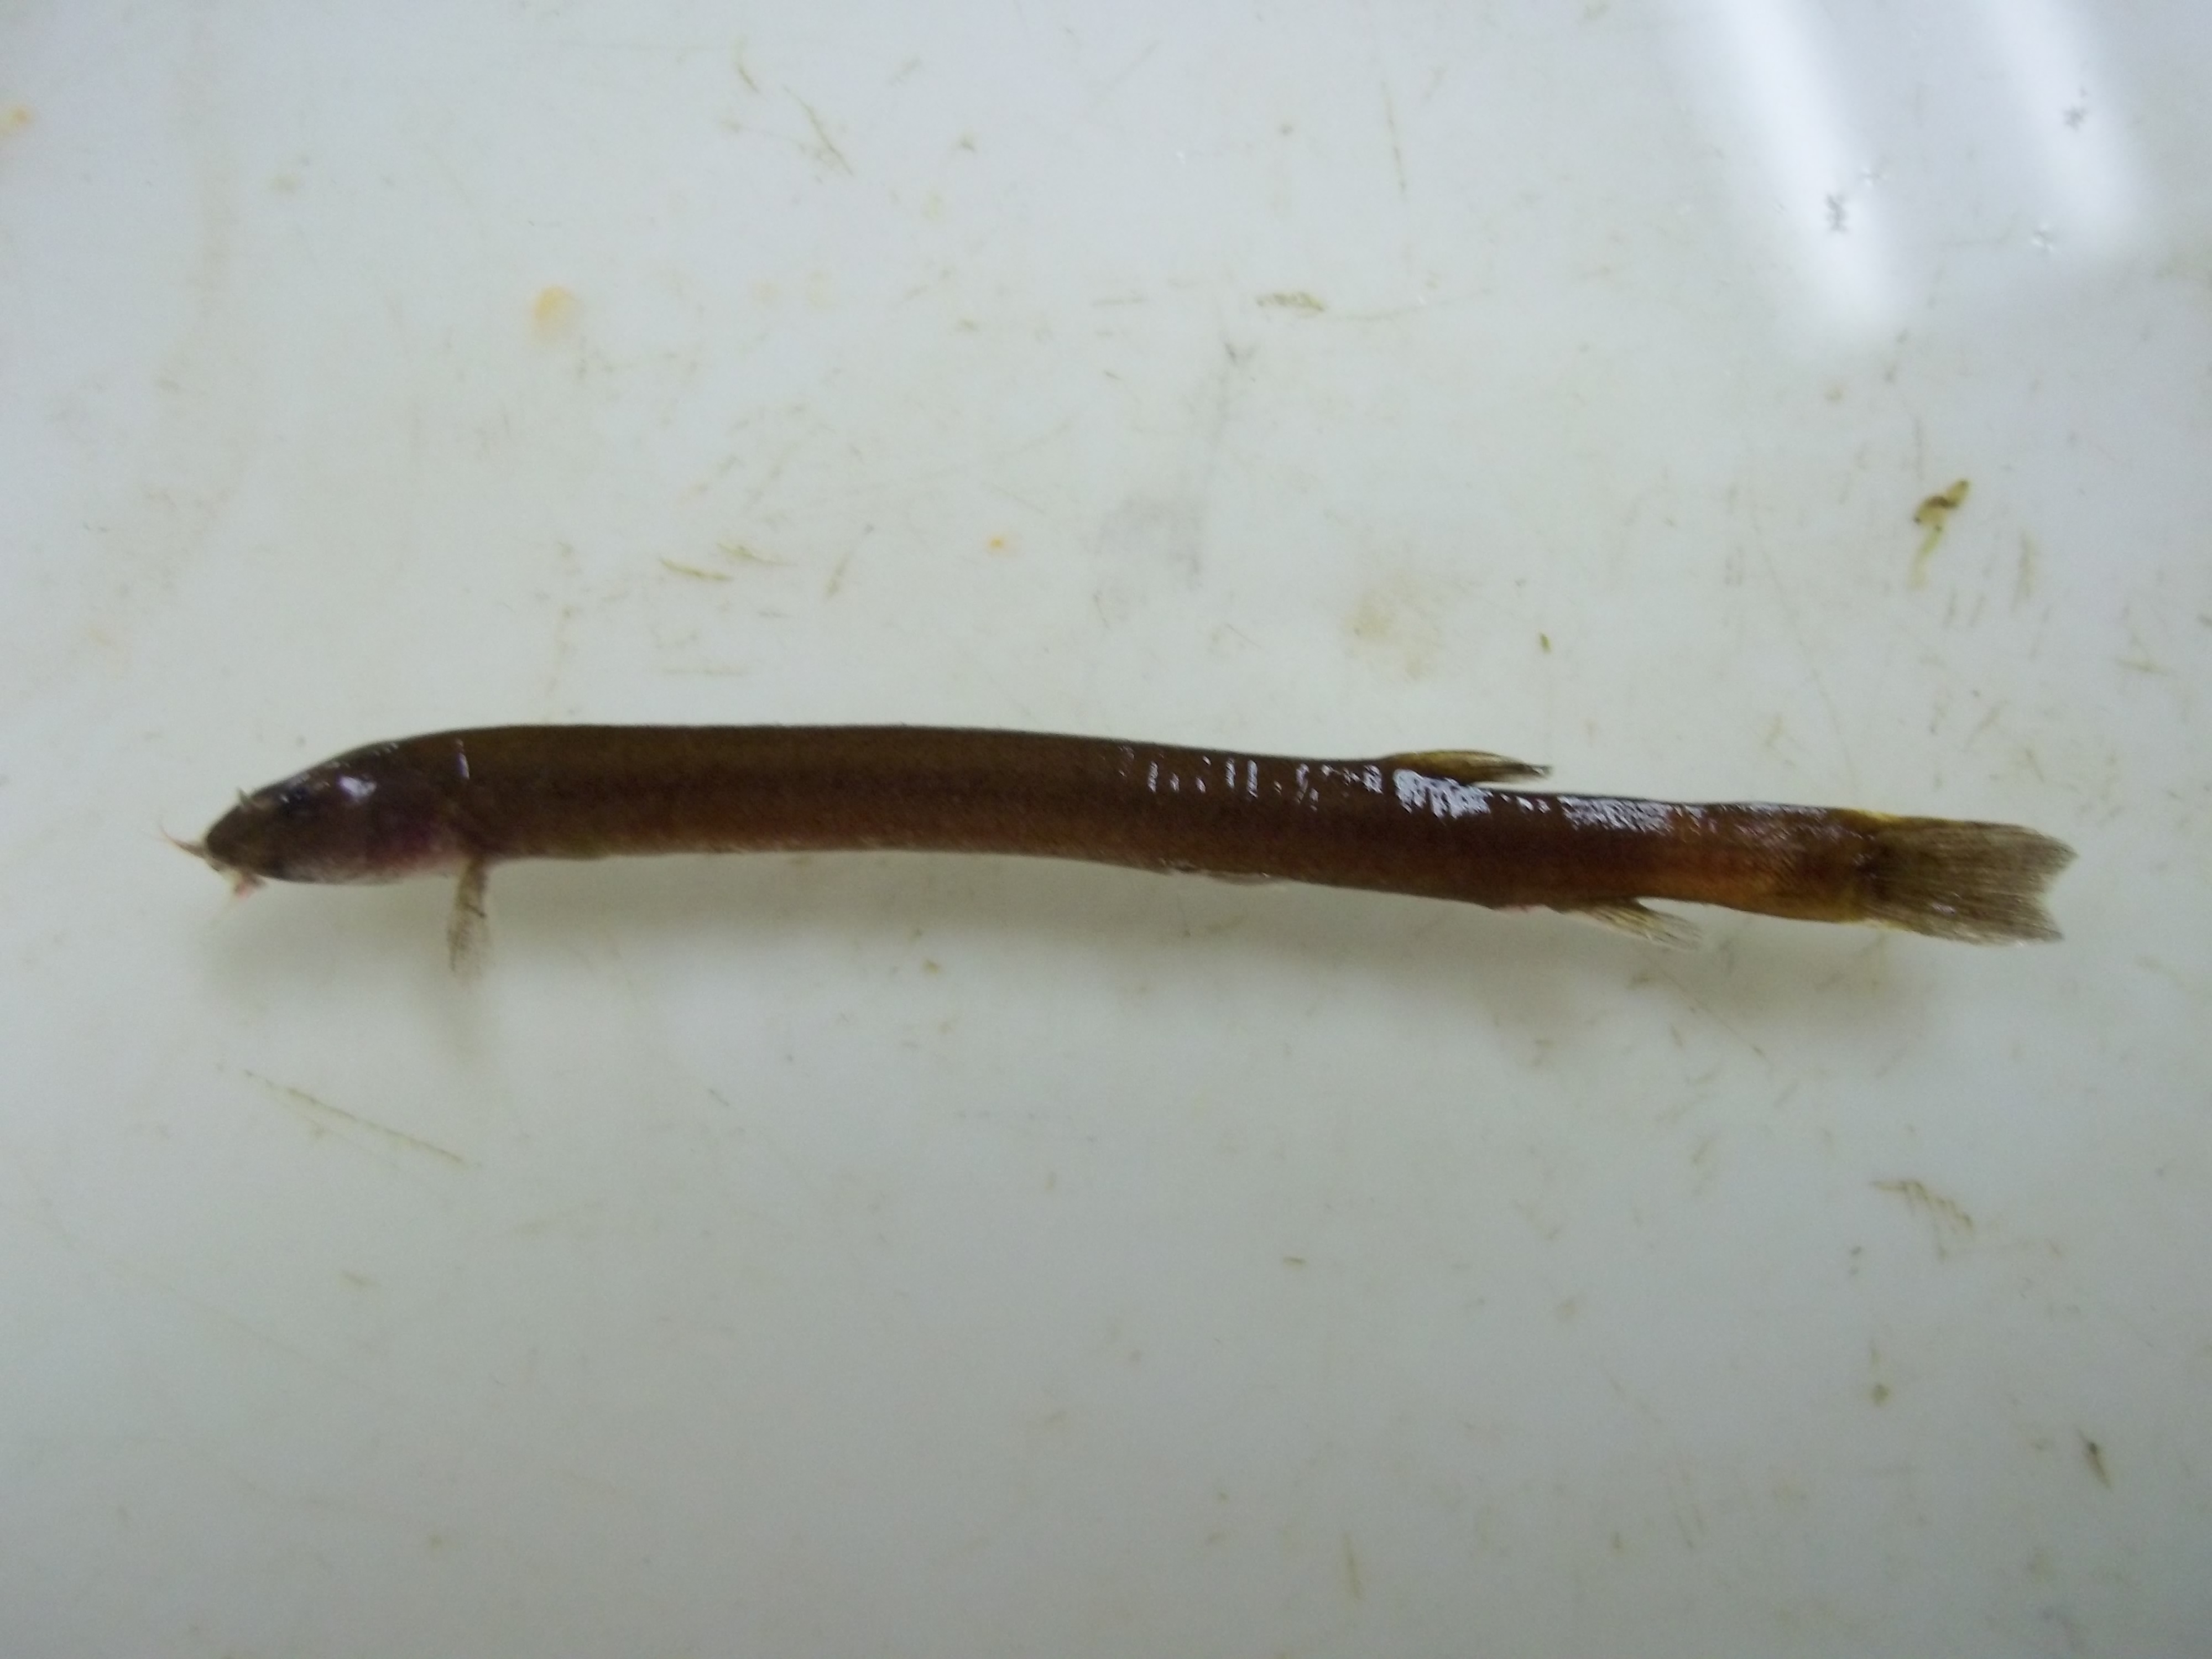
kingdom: Animalia
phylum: Chordata
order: Cypriniformes
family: Cobitidae
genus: Pangio
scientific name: Pangio kuhlii
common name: Coolie loach
